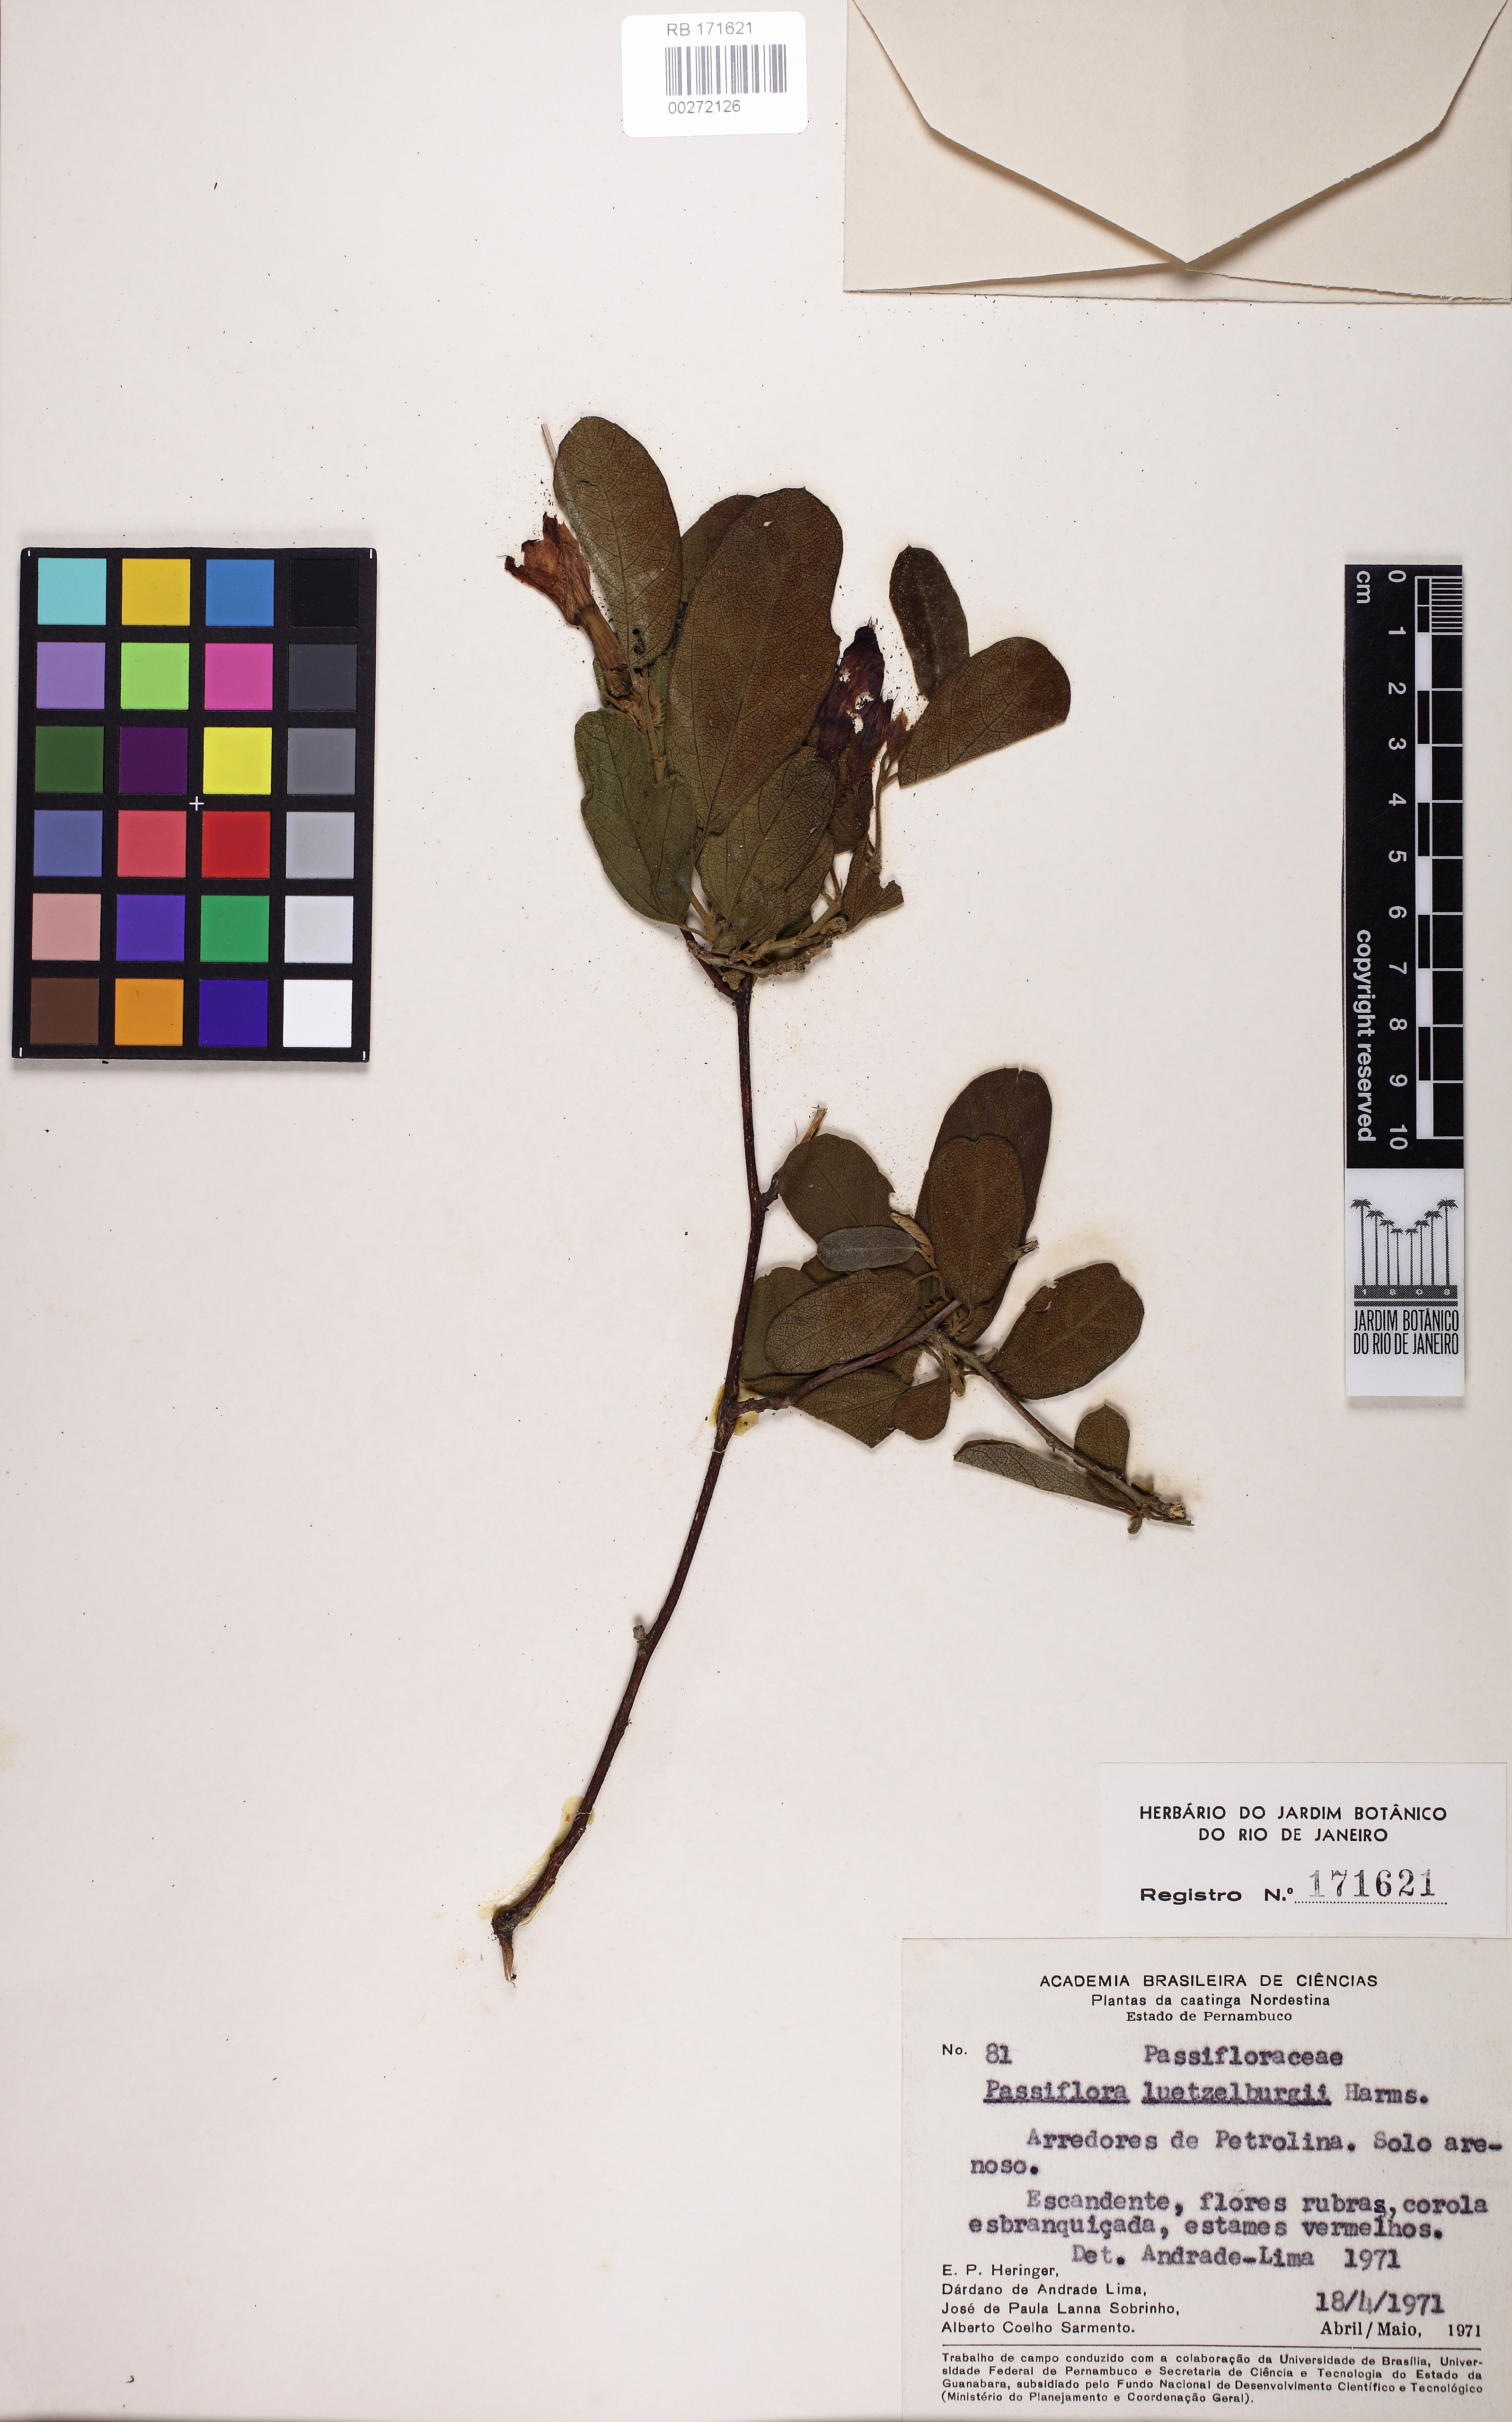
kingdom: Plantae
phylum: Tracheophyta
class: Magnoliopsida
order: Malpighiales
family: Passifloraceae
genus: Passiflora
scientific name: Passiflora luetzelburgii
